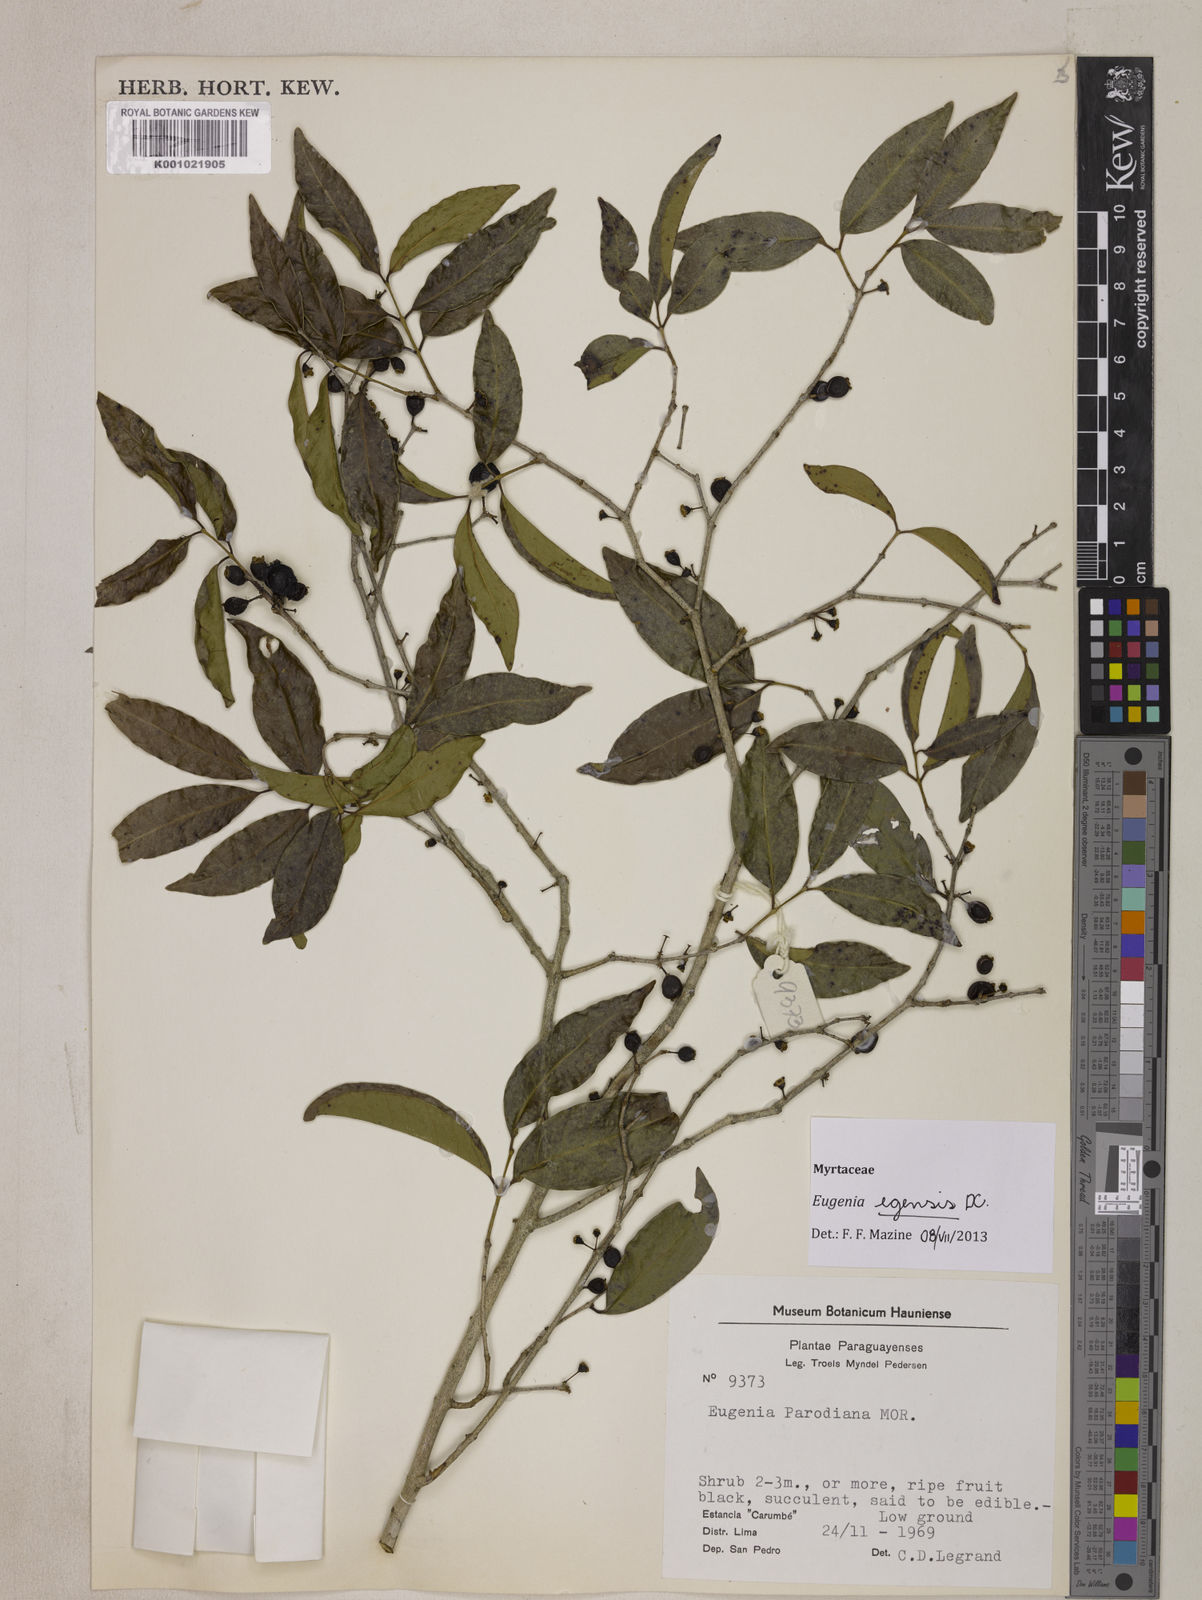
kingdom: Plantae
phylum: Tracheophyta
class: Magnoliopsida
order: Myrtales
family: Myrtaceae
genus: Eugenia
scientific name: Eugenia egensis
